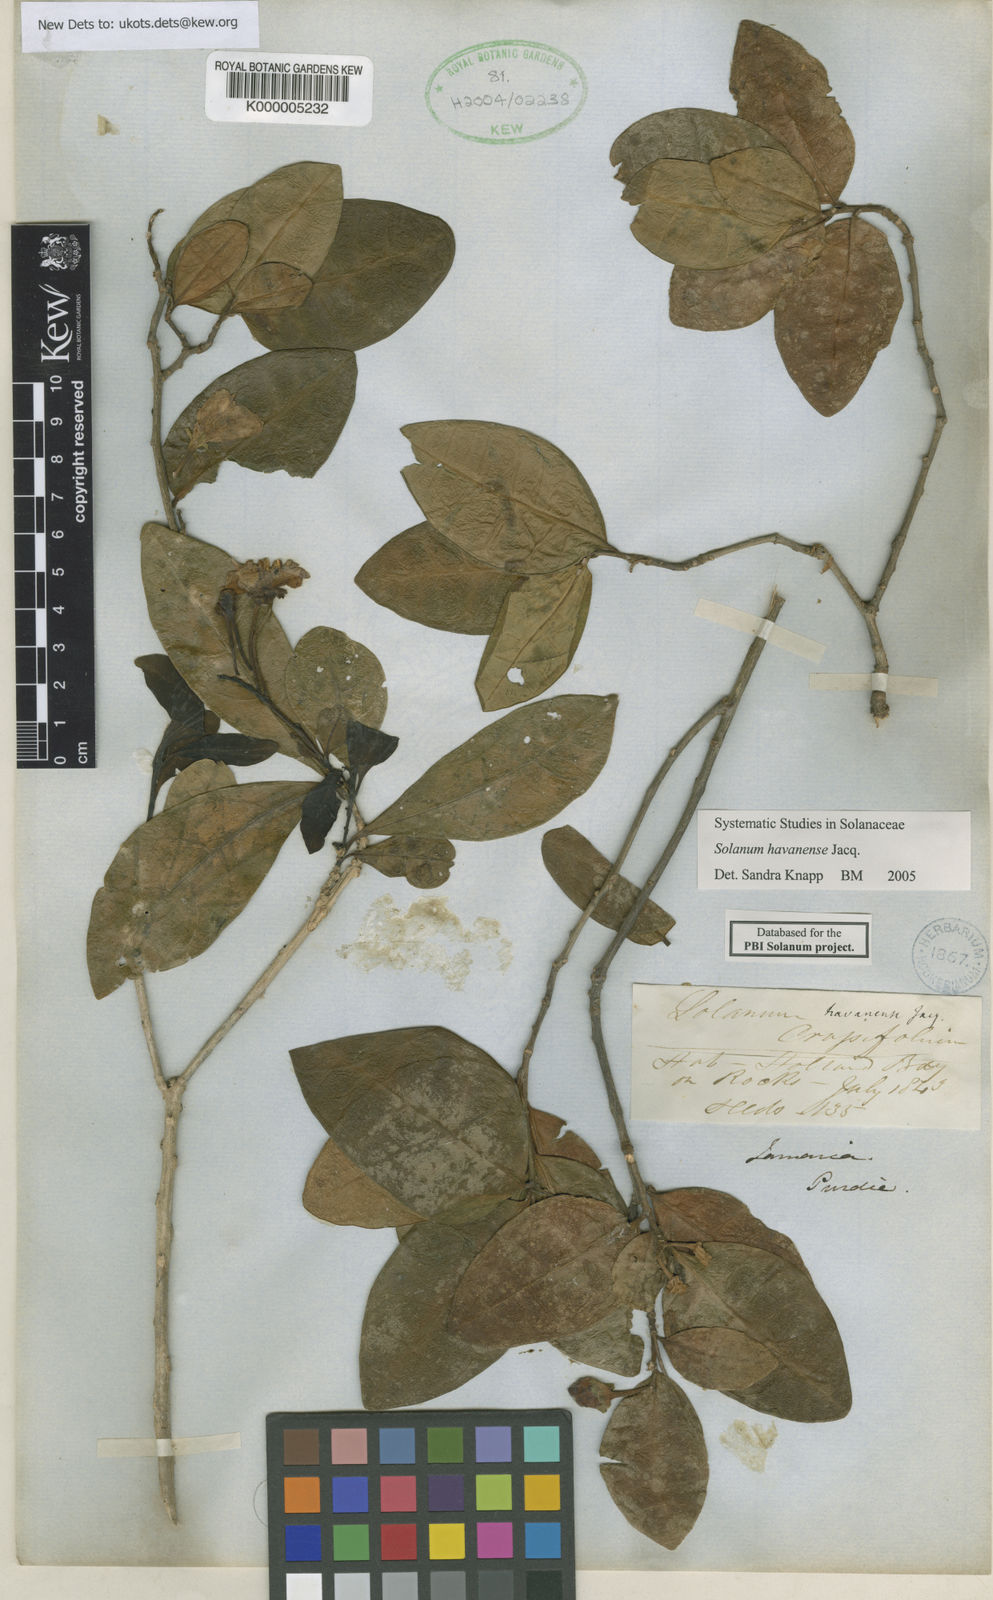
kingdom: Plantae
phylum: Tracheophyta
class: Magnoliopsida
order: Solanales
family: Solanaceae
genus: Solanum
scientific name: Solanum havanense
